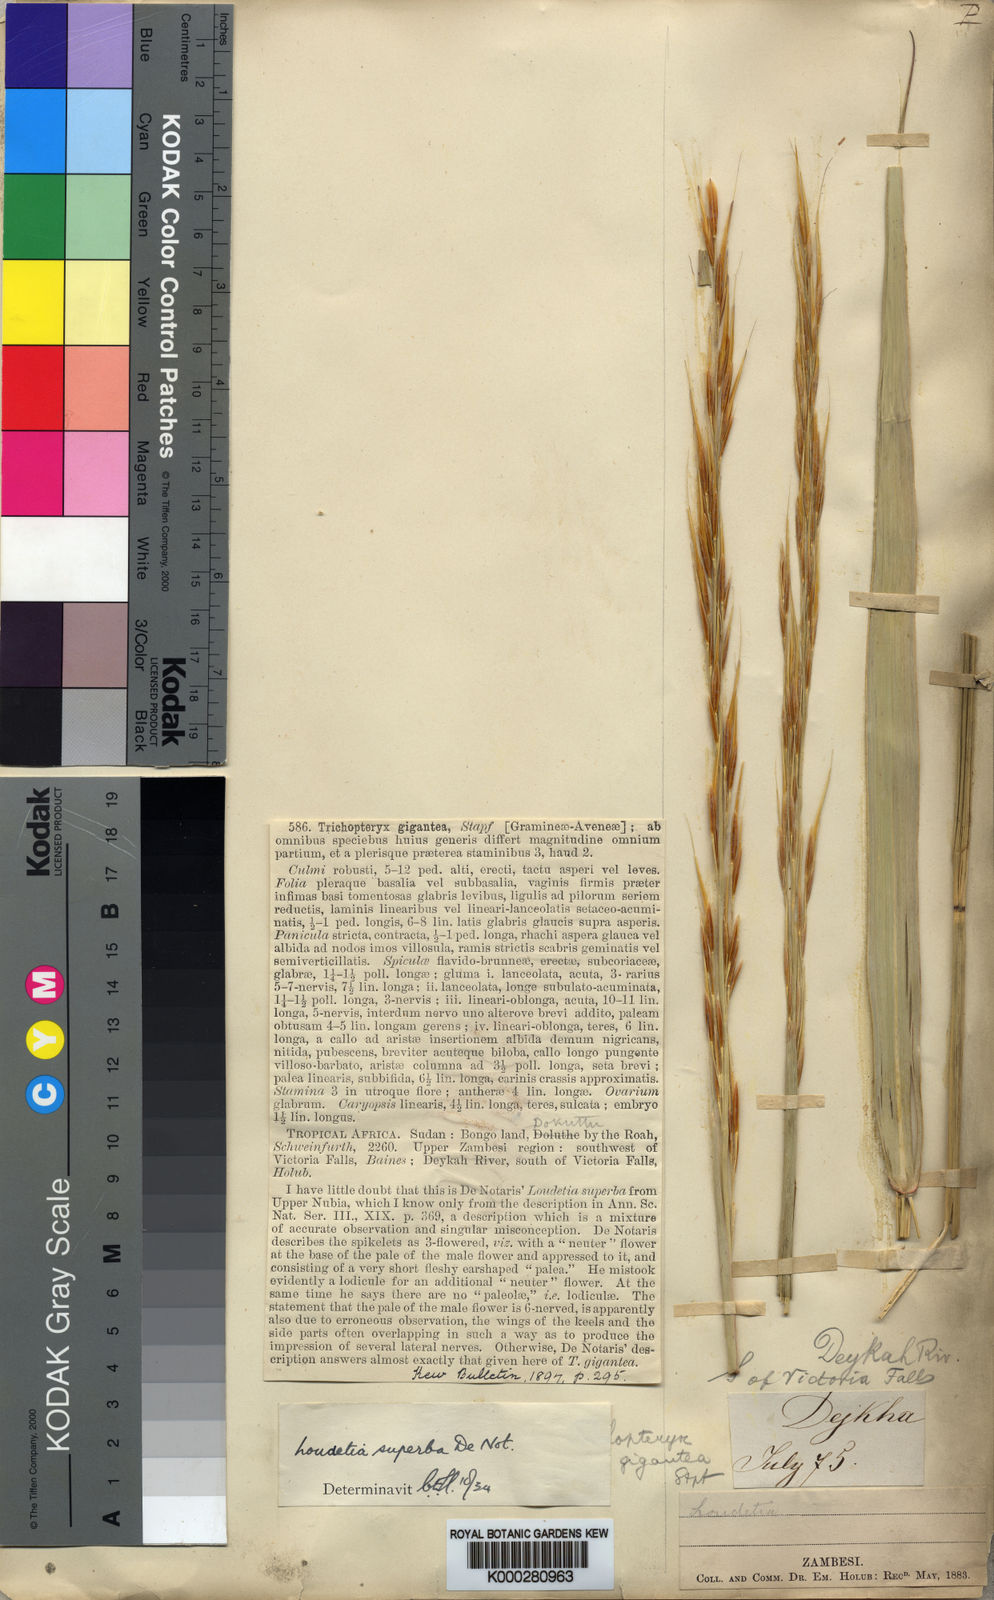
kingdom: Plantae
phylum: Tracheophyta
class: Liliopsida
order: Poales
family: Poaceae
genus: Tristachya
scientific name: Tristachya superba
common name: Giant trident grass
